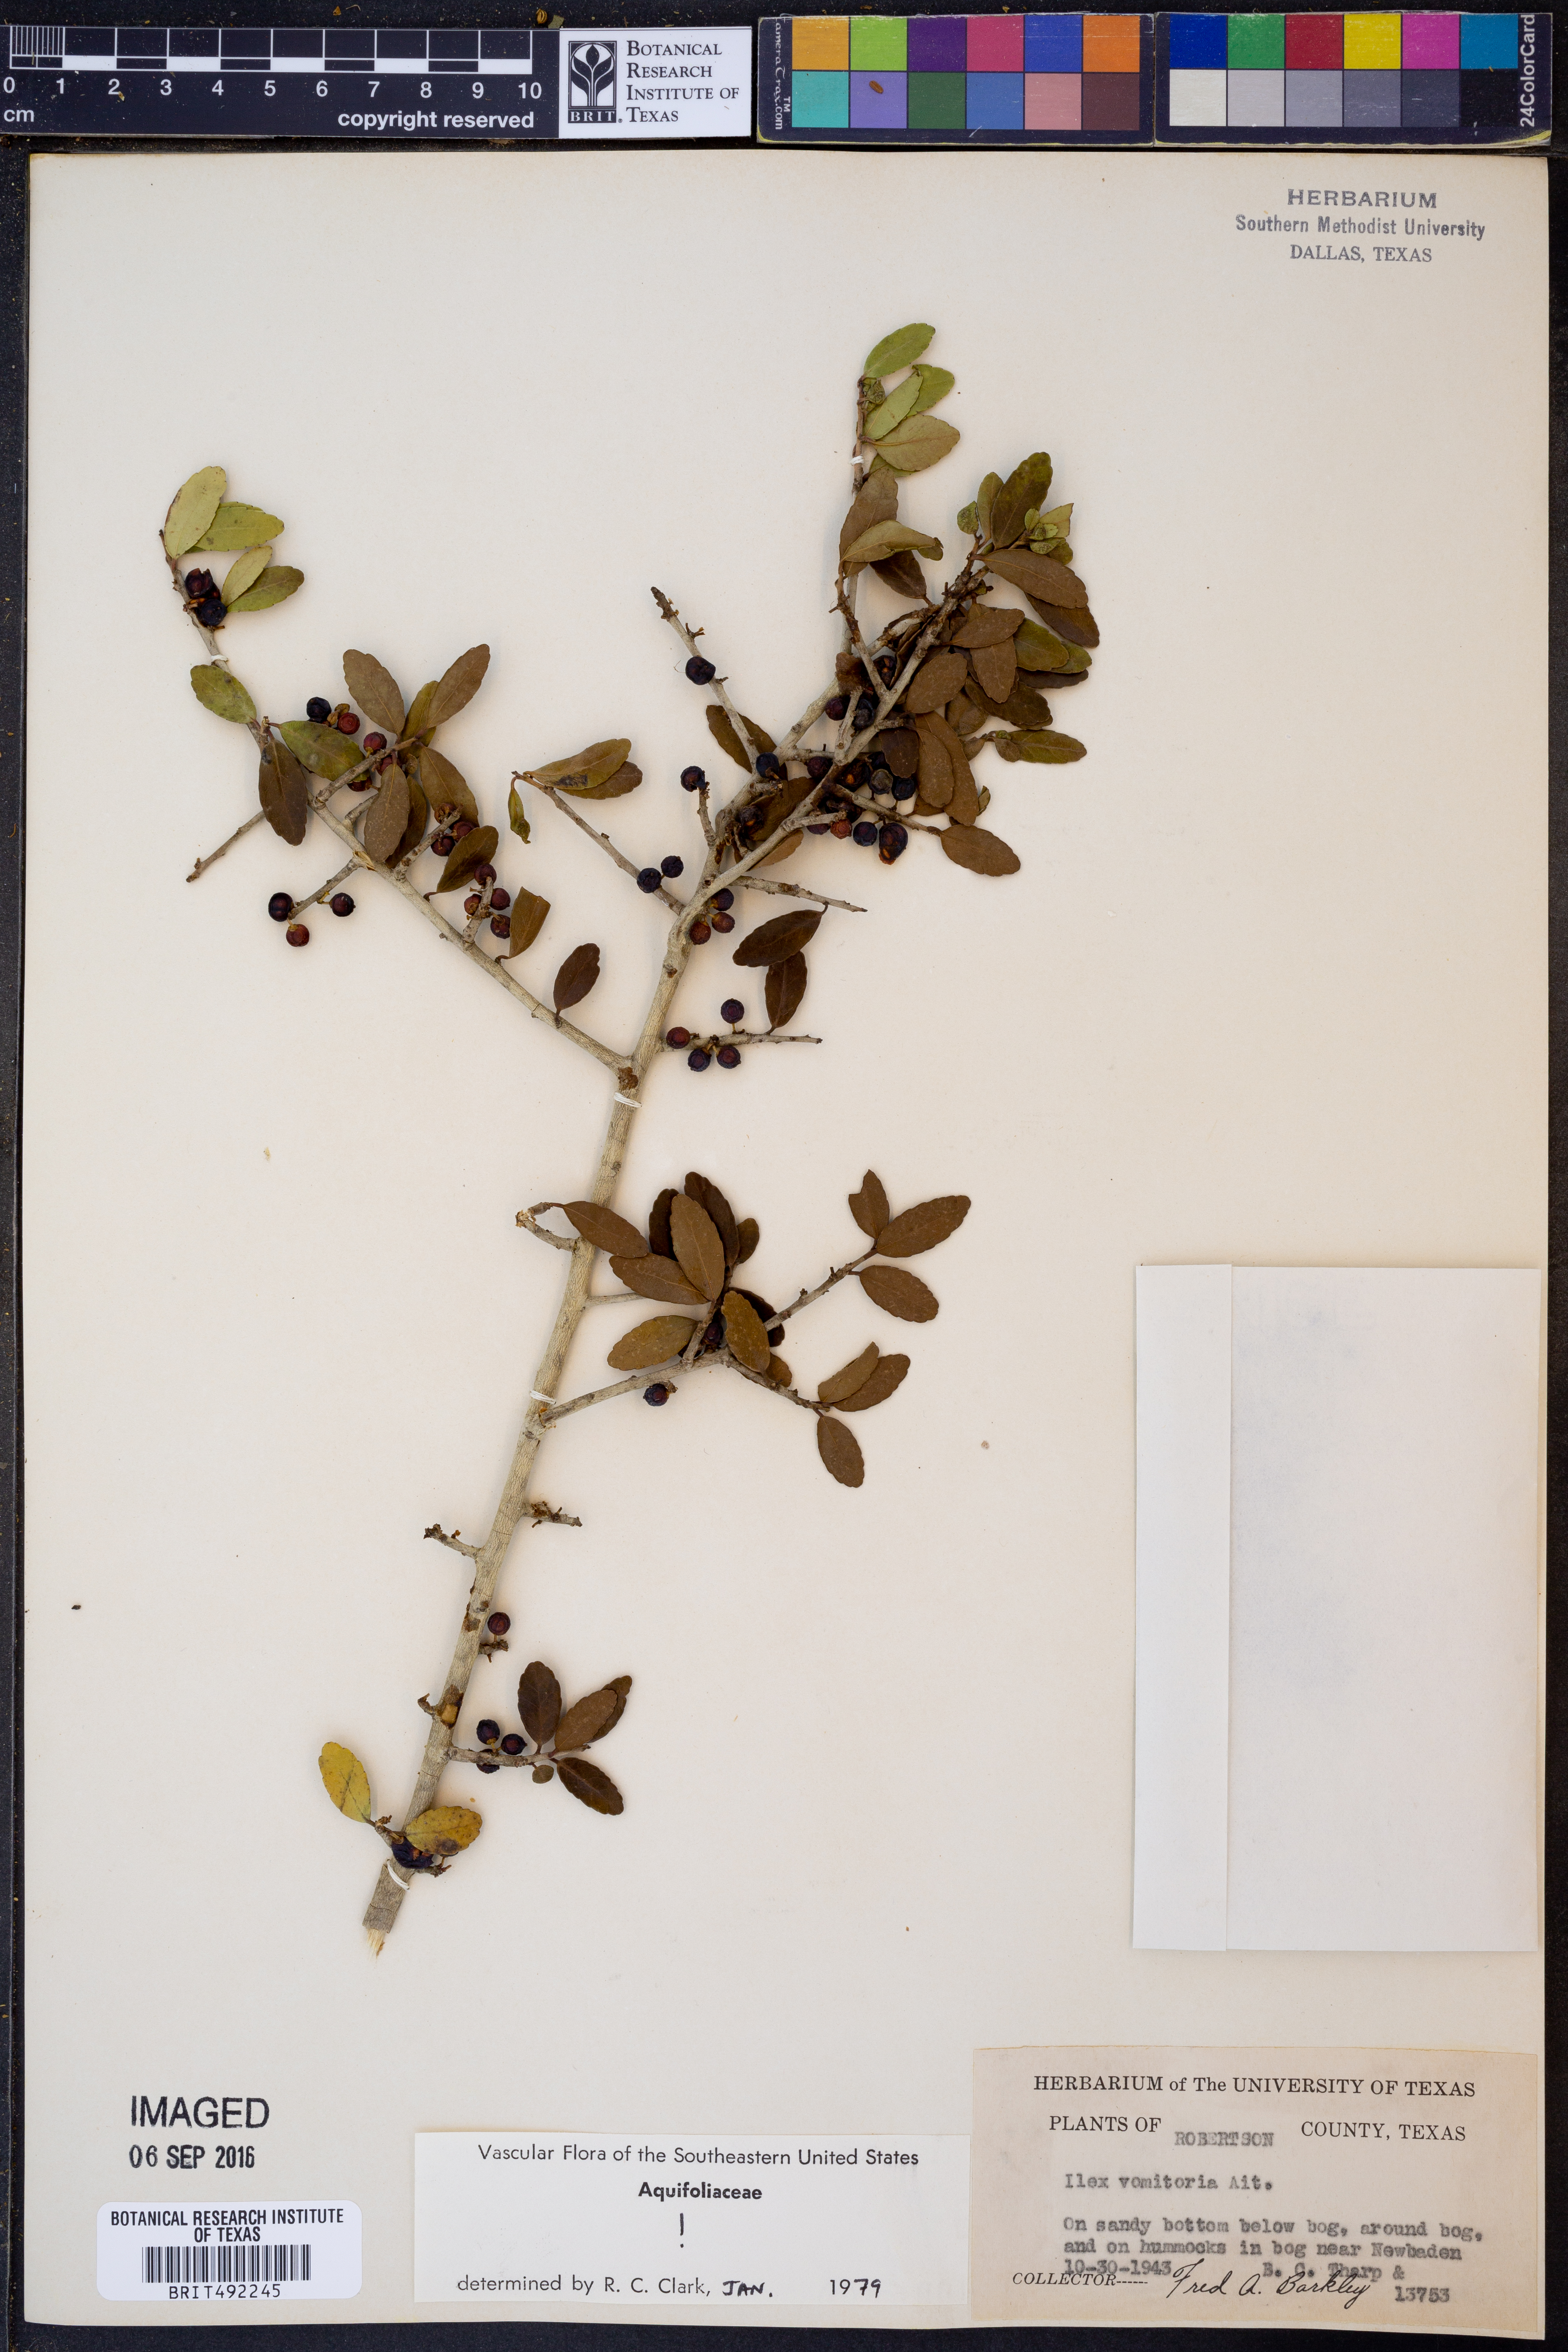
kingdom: Plantae
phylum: Tracheophyta
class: Magnoliopsida
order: Aquifoliales
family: Aquifoliaceae
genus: Ilex
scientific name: Ilex vomitoria
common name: Yaupon holly
